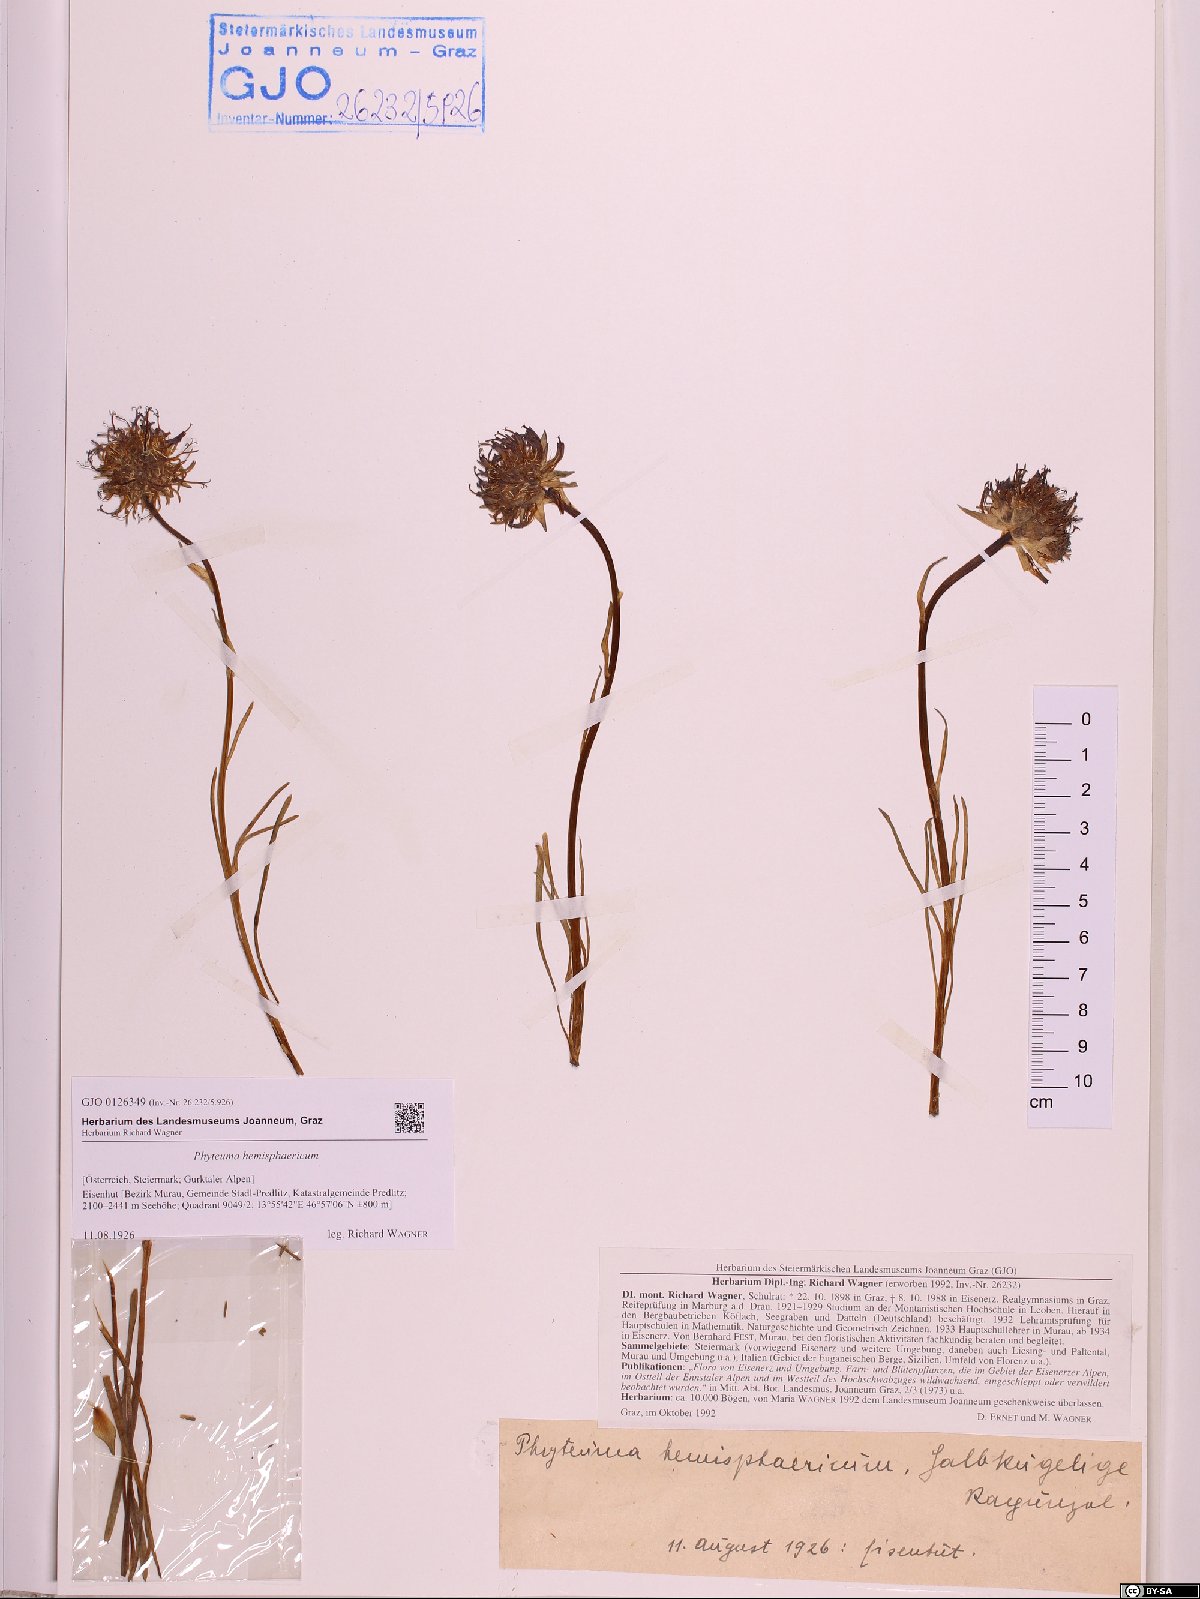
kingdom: Plantae
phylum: Tracheophyta
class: Magnoliopsida
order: Asterales
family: Campanulaceae
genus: Phyteuma
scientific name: Phyteuma hemisphaericum
